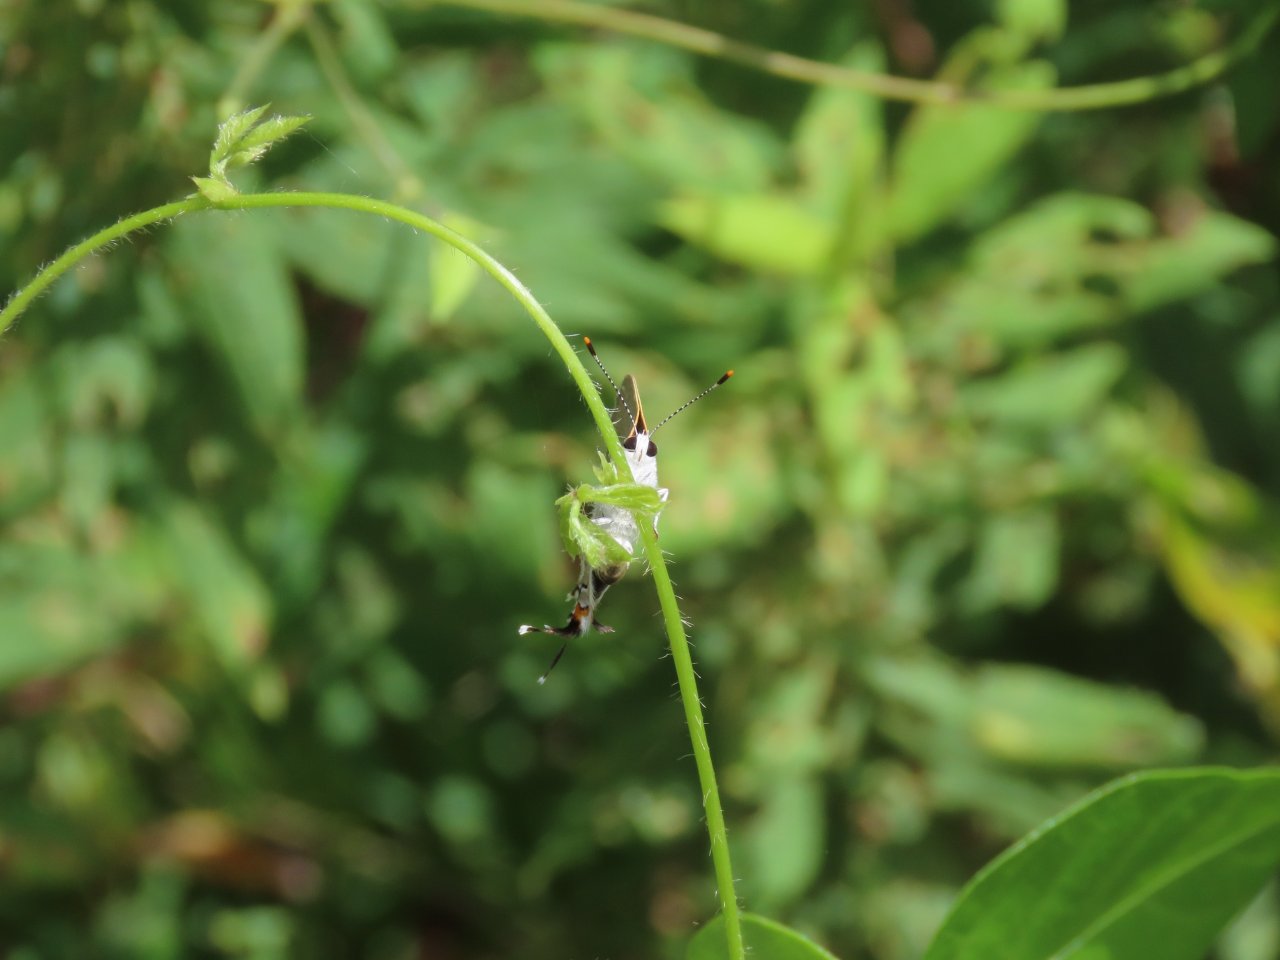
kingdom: Animalia
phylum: Arthropoda
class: Insecta
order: Lepidoptera
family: Lycaenidae
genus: Strymon
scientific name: Strymon melinus
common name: Gray Hairstreak
